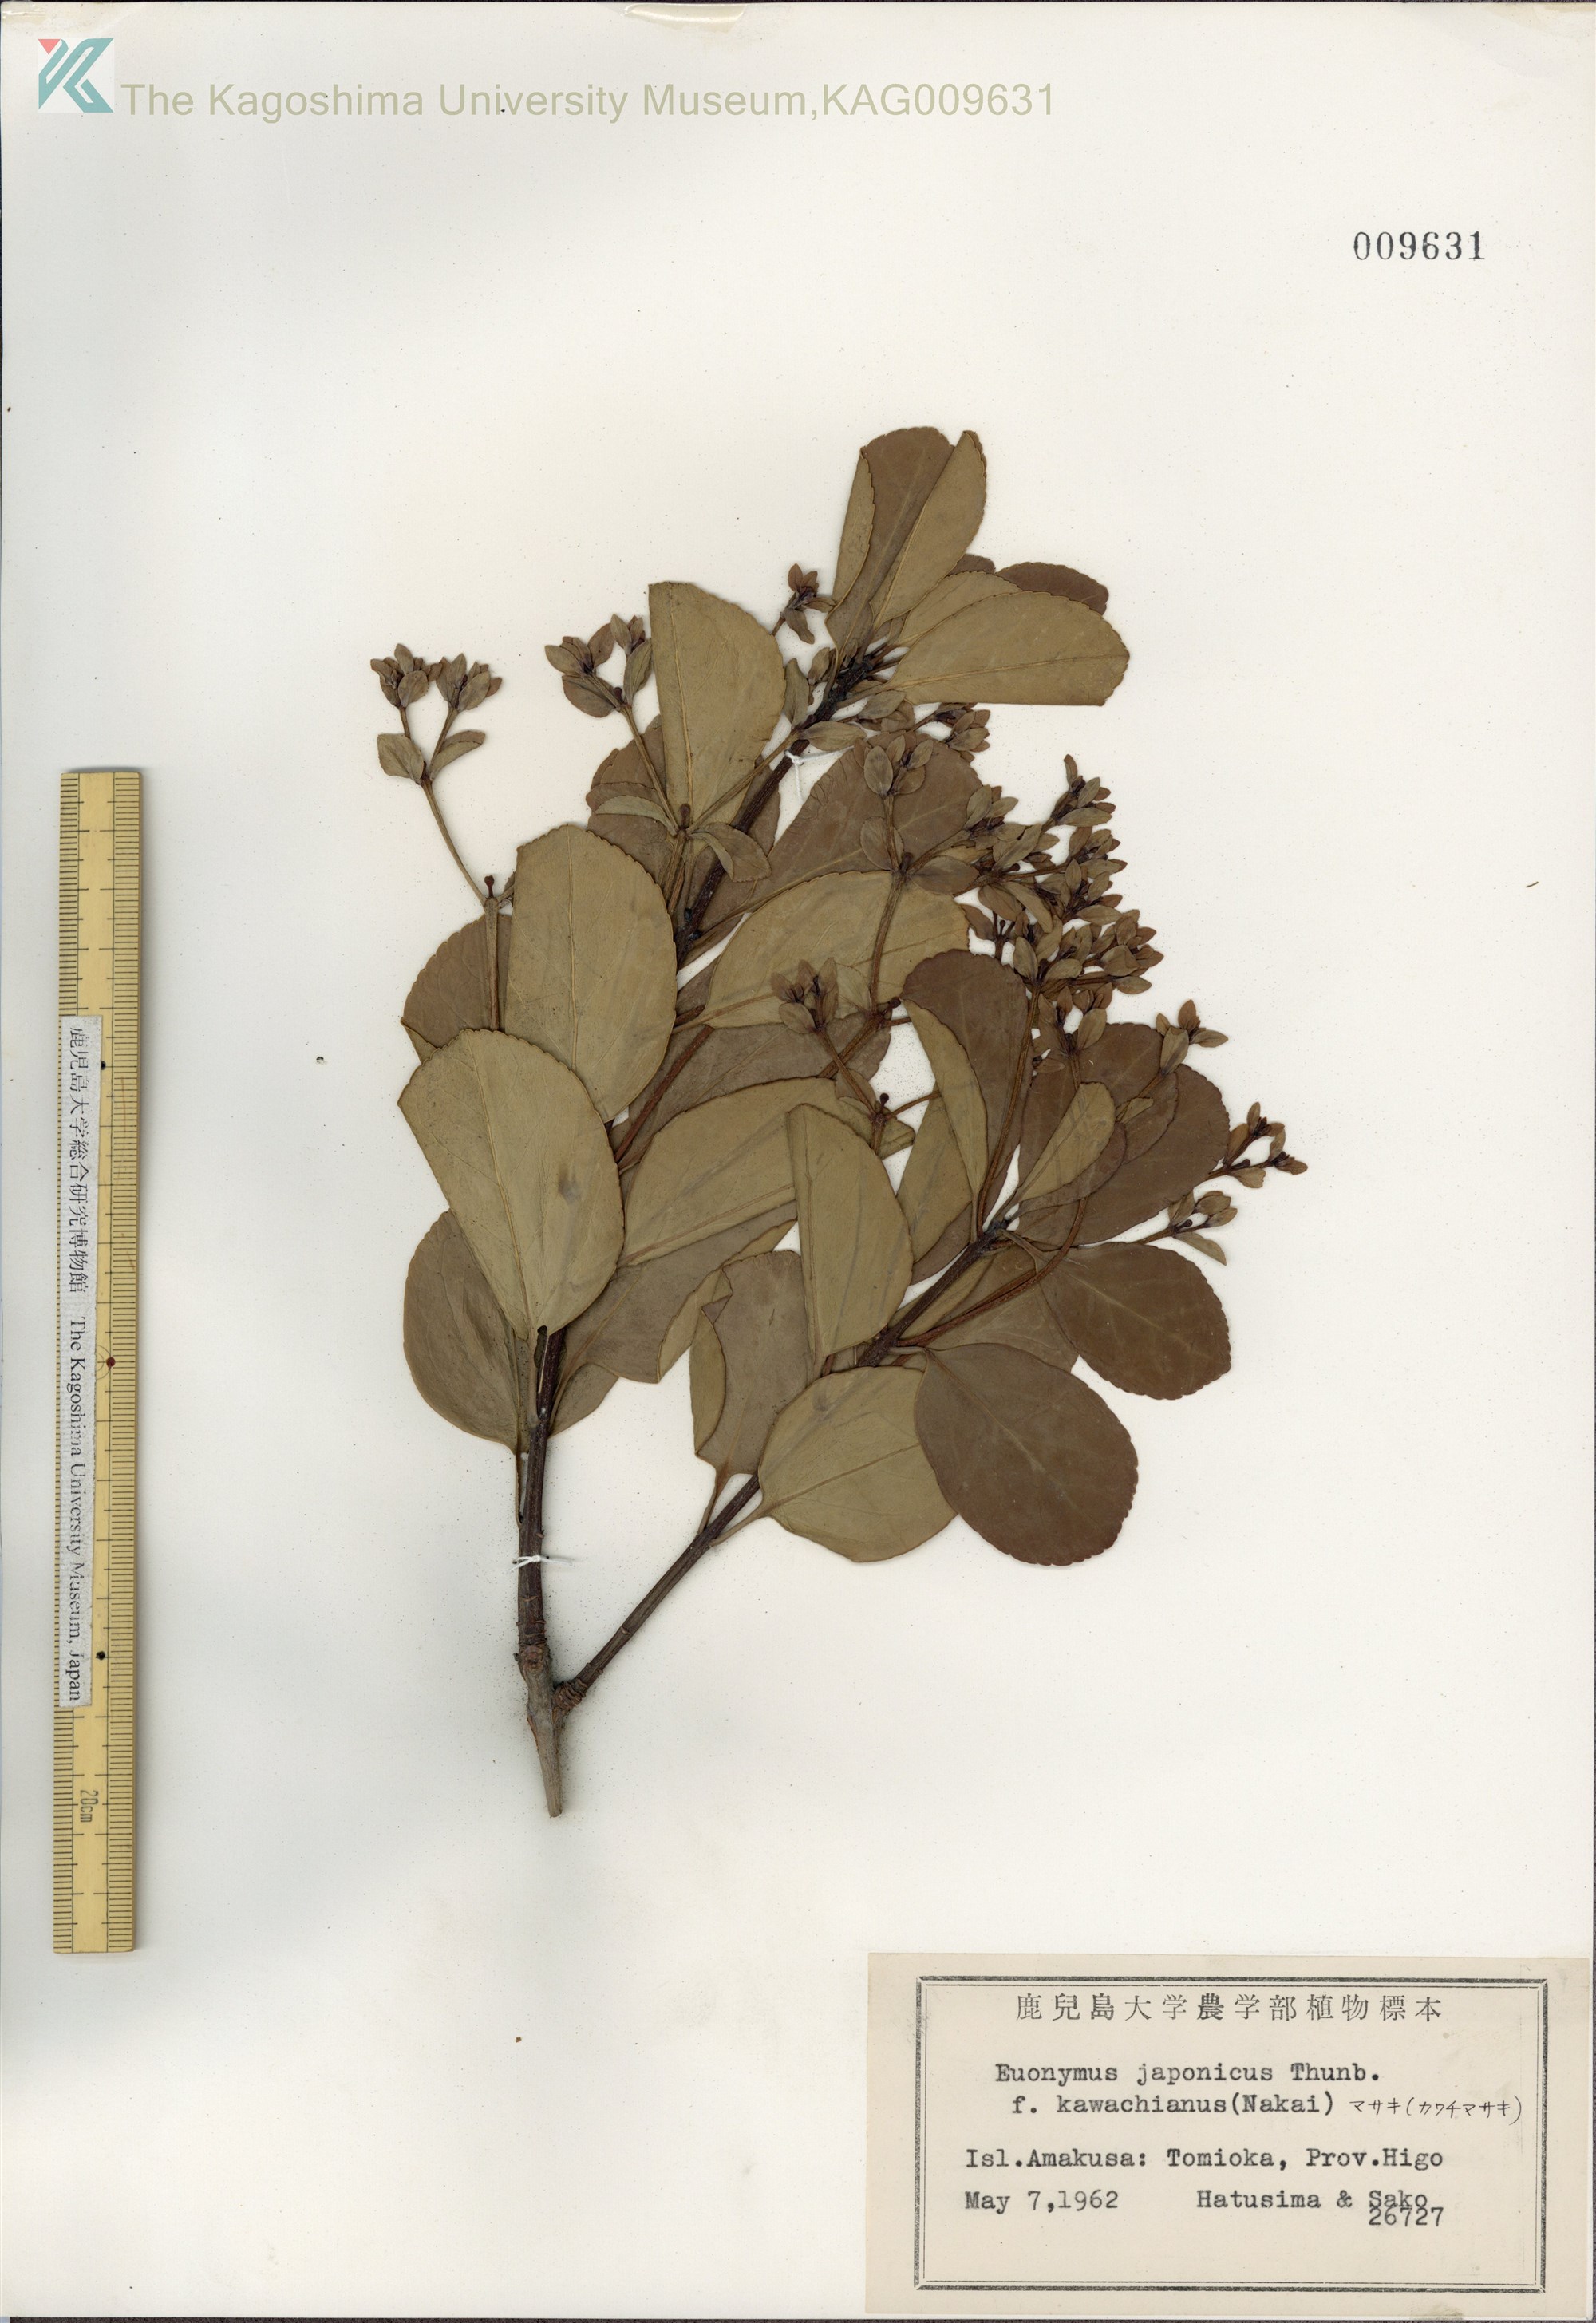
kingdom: Plantae
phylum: Tracheophyta
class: Magnoliopsida
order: Celastrales
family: Celastraceae
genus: Euonymus
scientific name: Euonymus japonicus
